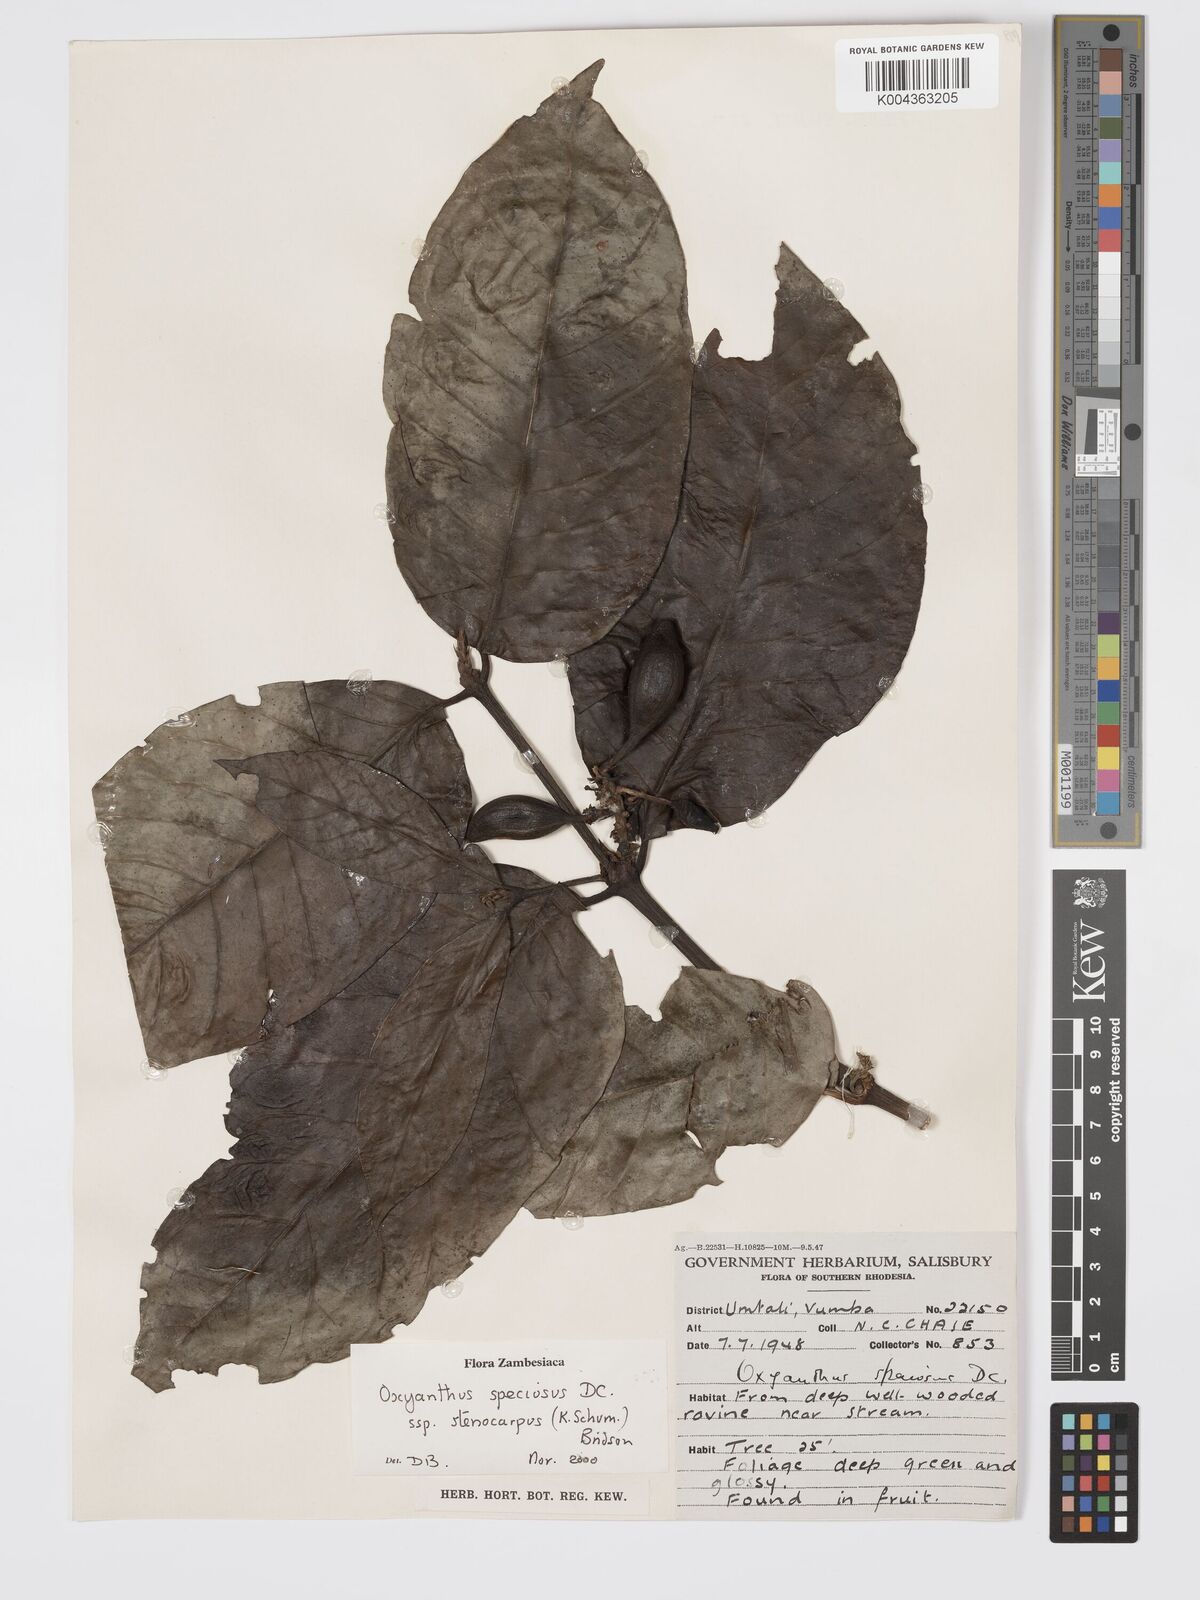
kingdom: Plantae
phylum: Tracheophyta
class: Magnoliopsida
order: Gentianales
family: Rubiaceae
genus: Oxyanthus
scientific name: Oxyanthus speciosus
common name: Whipstick loquat
